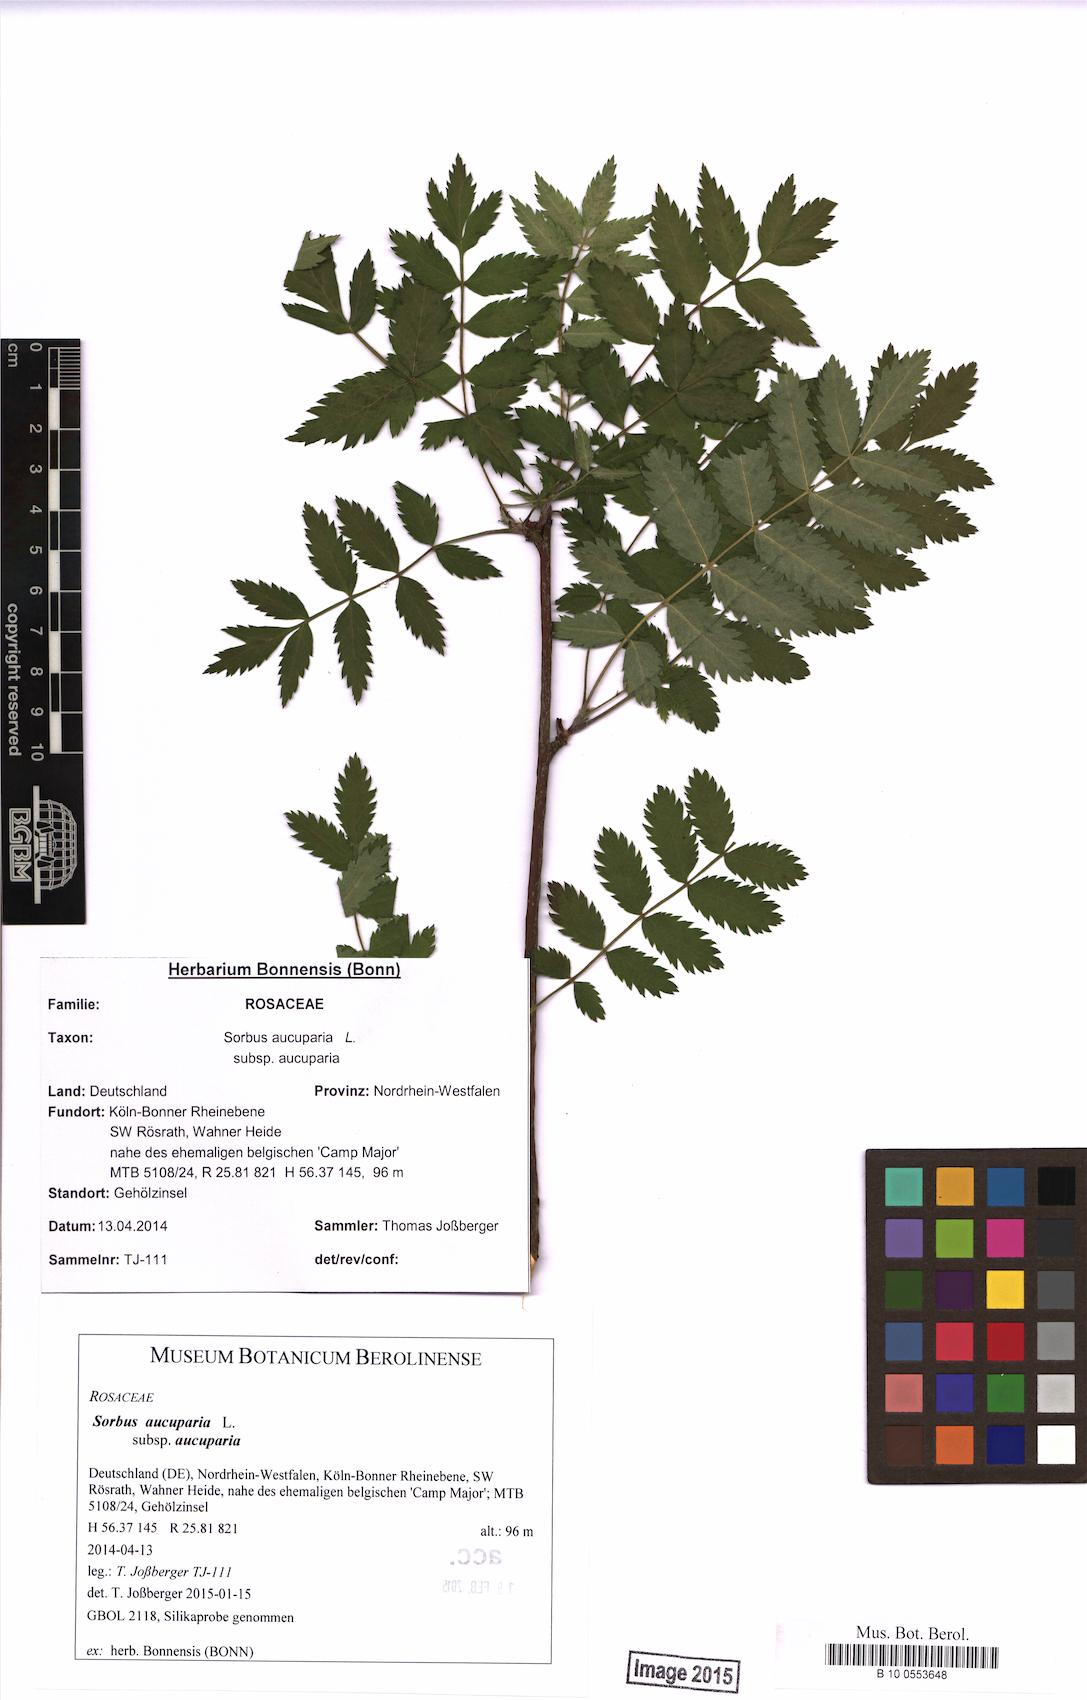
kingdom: Plantae
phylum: Tracheophyta
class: Magnoliopsida
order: Rosales
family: Rosaceae
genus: Sorbus
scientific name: Sorbus aucuparia
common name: Rowan
